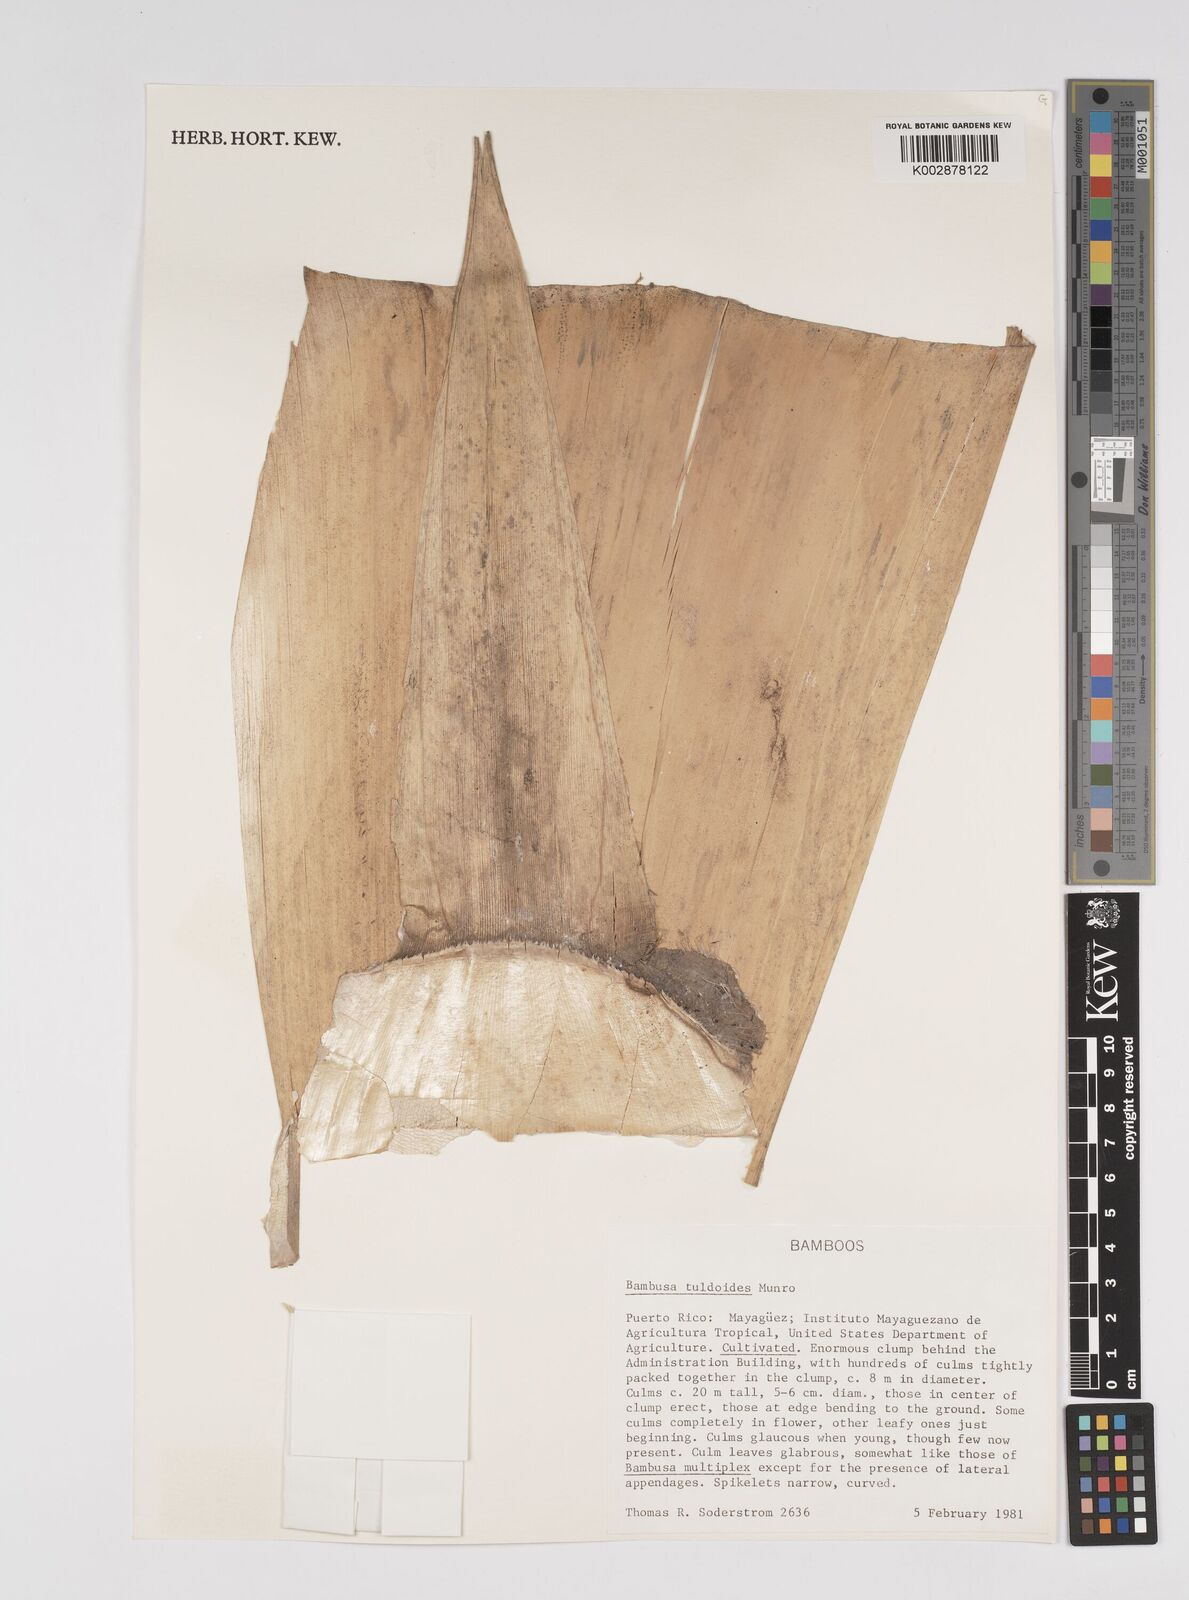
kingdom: Plantae
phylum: Tracheophyta
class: Liliopsida
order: Poales
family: Poaceae
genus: Bambusa
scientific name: Bambusa tuldoides
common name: Verdant bamboo
